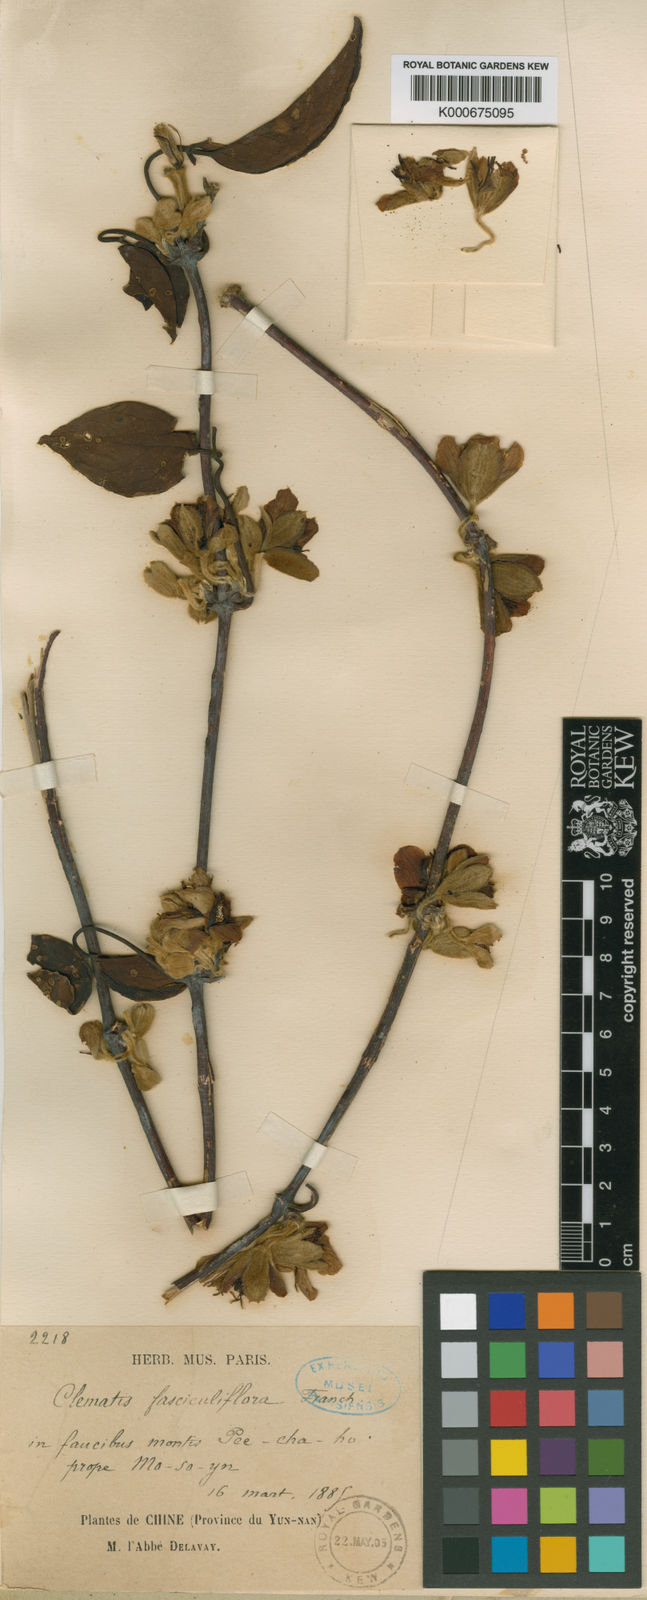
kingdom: Plantae
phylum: Tracheophyta
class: Magnoliopsida
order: Ranunculales
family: Ranunculaceae
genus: Clematis
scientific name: Clematis fasciculiflora
